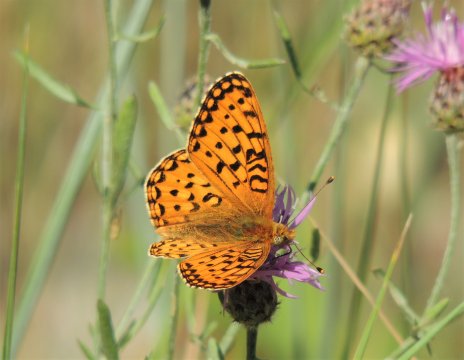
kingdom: Animalia
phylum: Arthropoda
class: Insecta
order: Lepidoptera
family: Nymphalidae
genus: Speyeria
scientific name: Speyeria mormonia
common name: Mormon Fritillary
